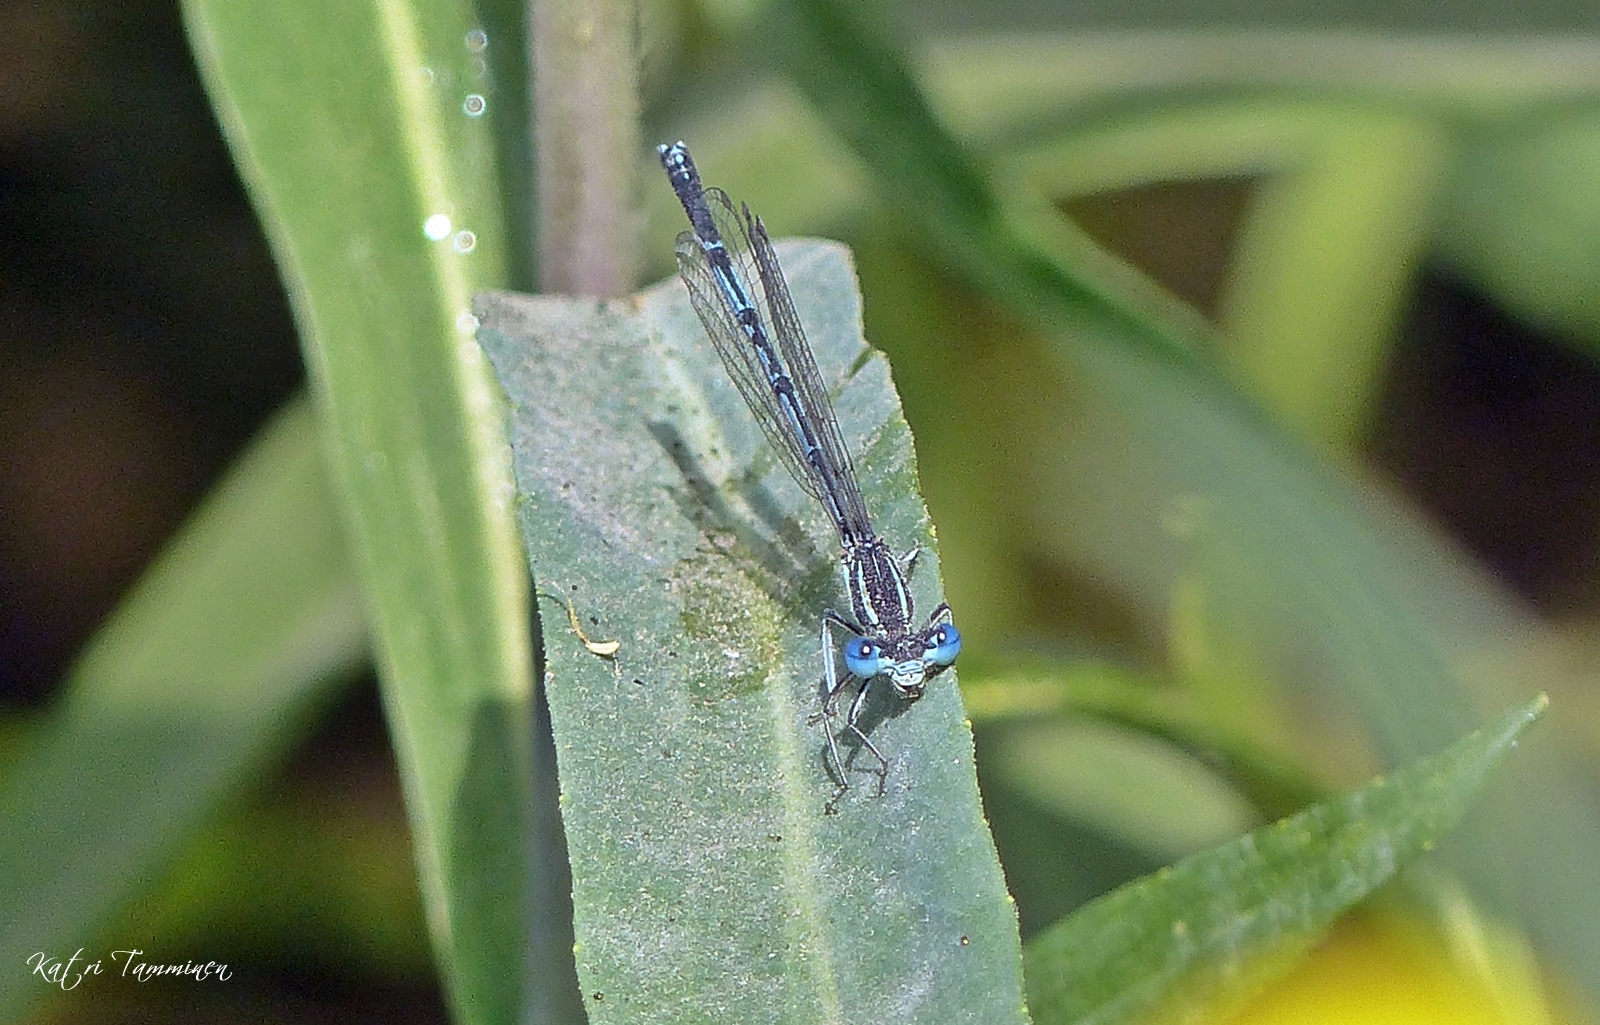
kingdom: Animalia
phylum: Arthropoda
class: Insecta
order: Odonata
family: Platycnemididae
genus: Platycnemis
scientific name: Platycnemis pennipes
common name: White-legged damselfly
